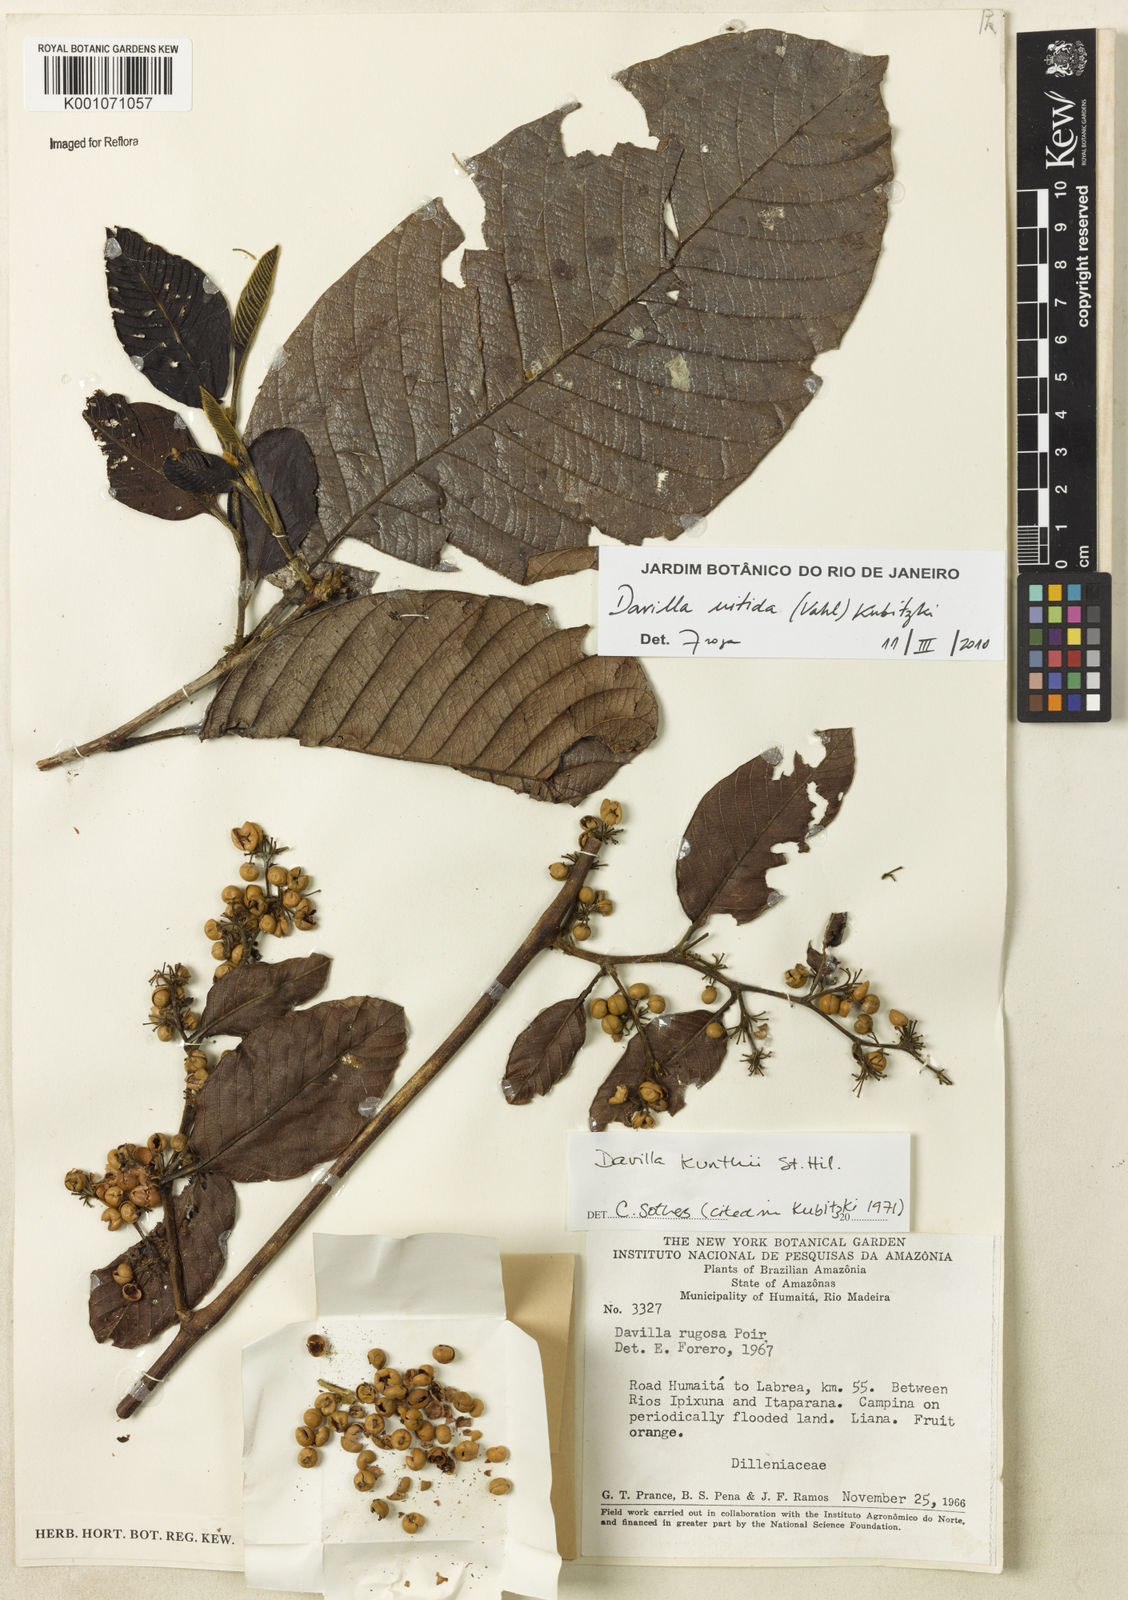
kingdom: Plantae
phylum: Tracheophyta
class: Magnoliopsida
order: Dilleniales
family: Dilleniaceae
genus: Davilla
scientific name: Davilla kunthii
